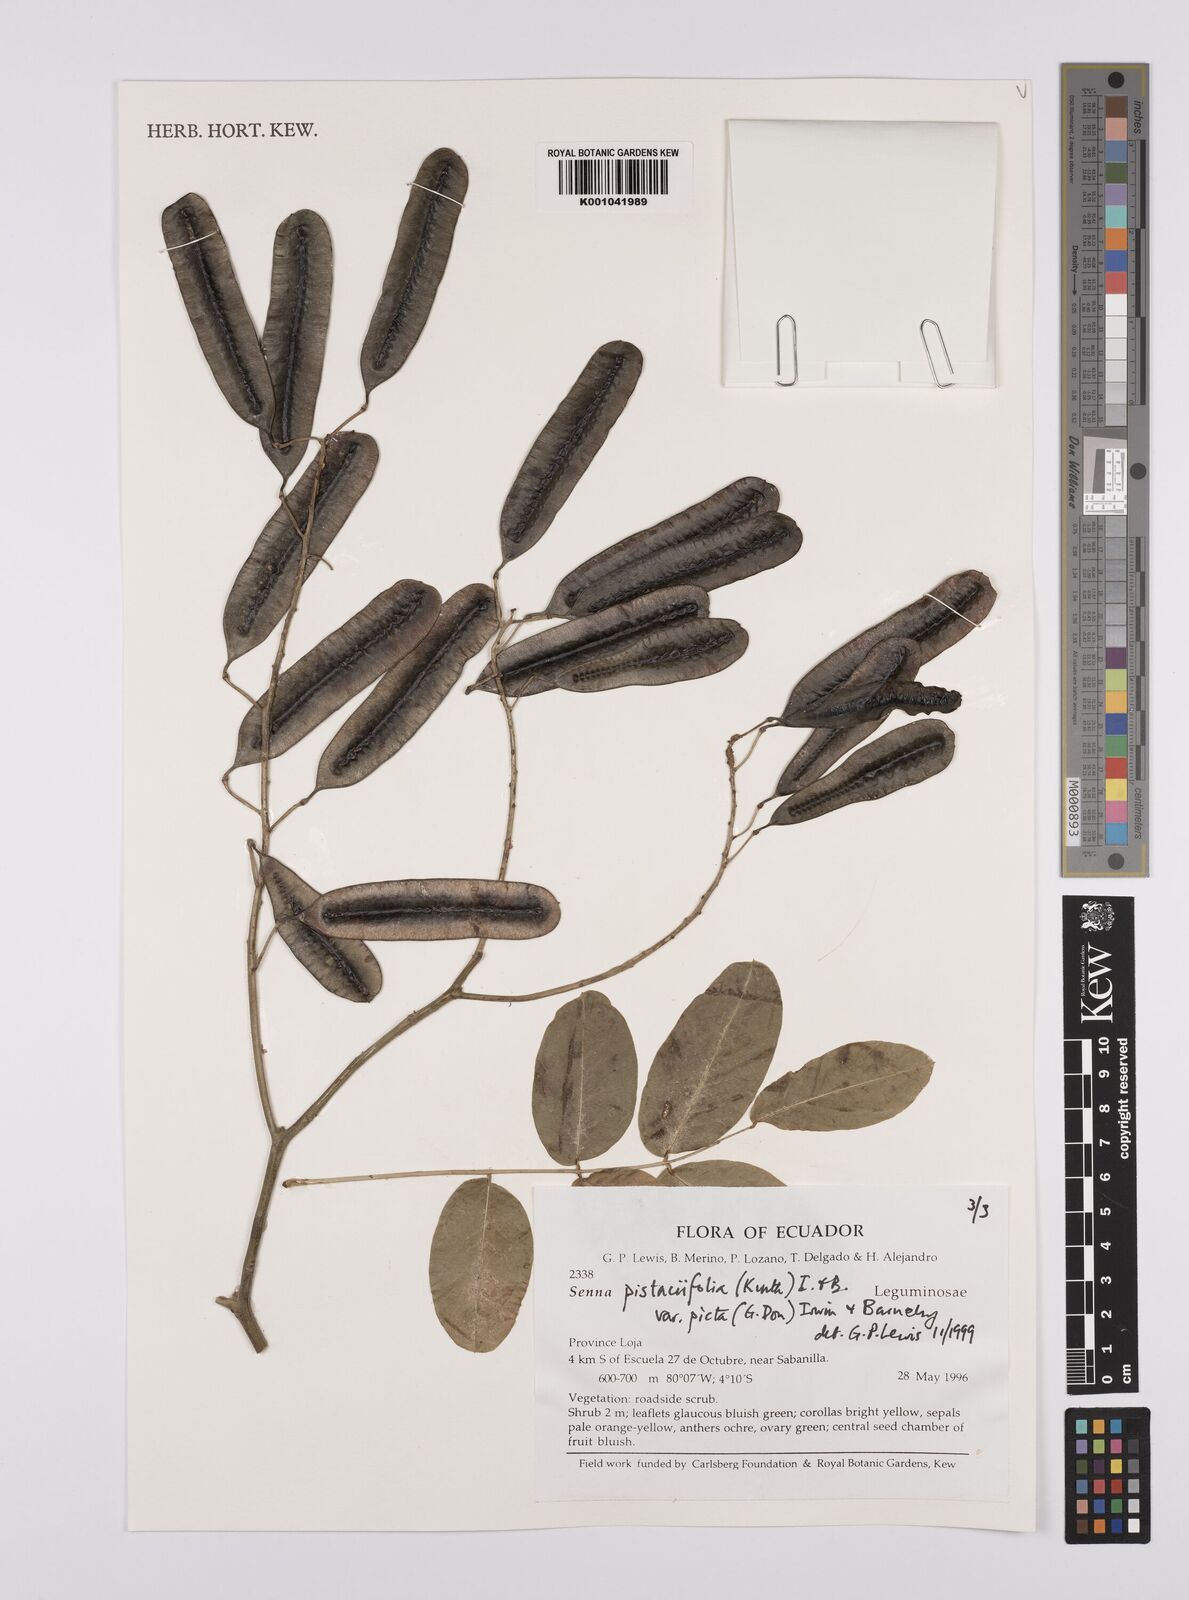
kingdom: Plantae
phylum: Tracheophyta
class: Magnoliopsida
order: Fabales
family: Fabaceae
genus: Senna
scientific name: Senna pistaciifolia
